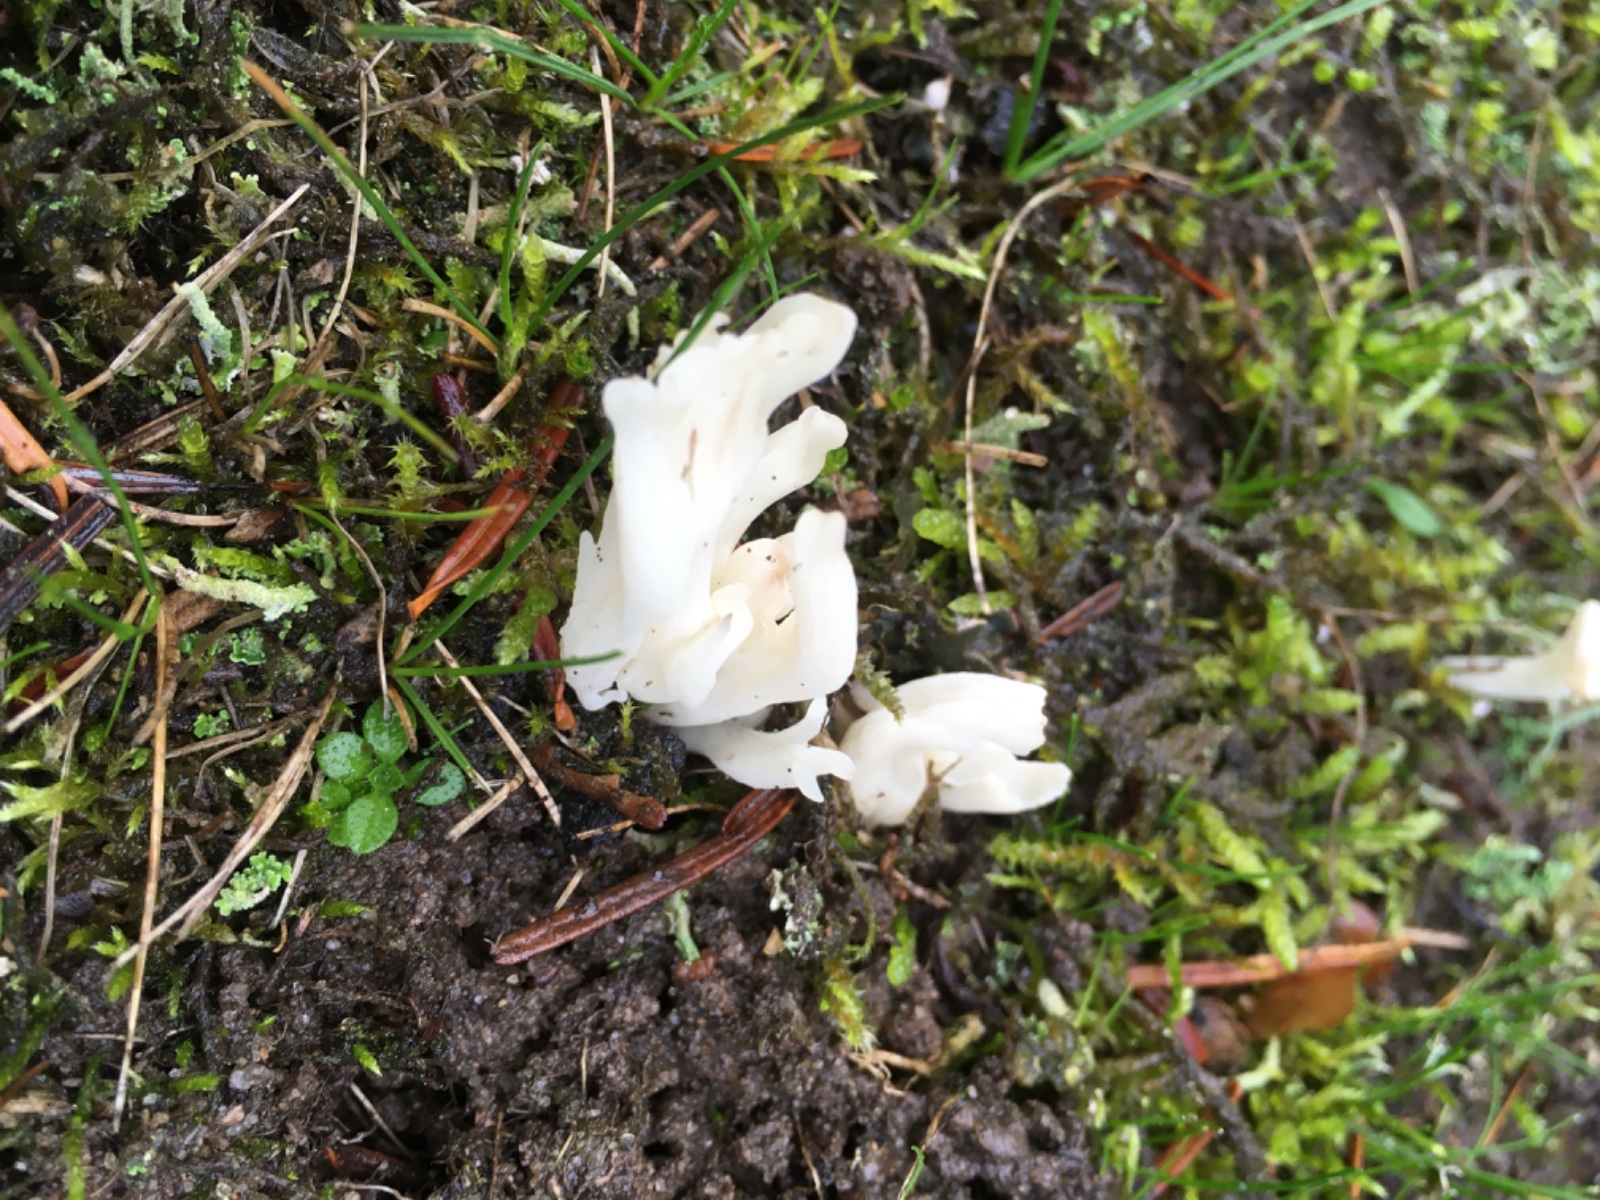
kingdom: Fungi
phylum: Basidiomycota
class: Agaricomycetes
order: Cantharellales
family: Hydnaceae
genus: Clavulina
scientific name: Clavulina
